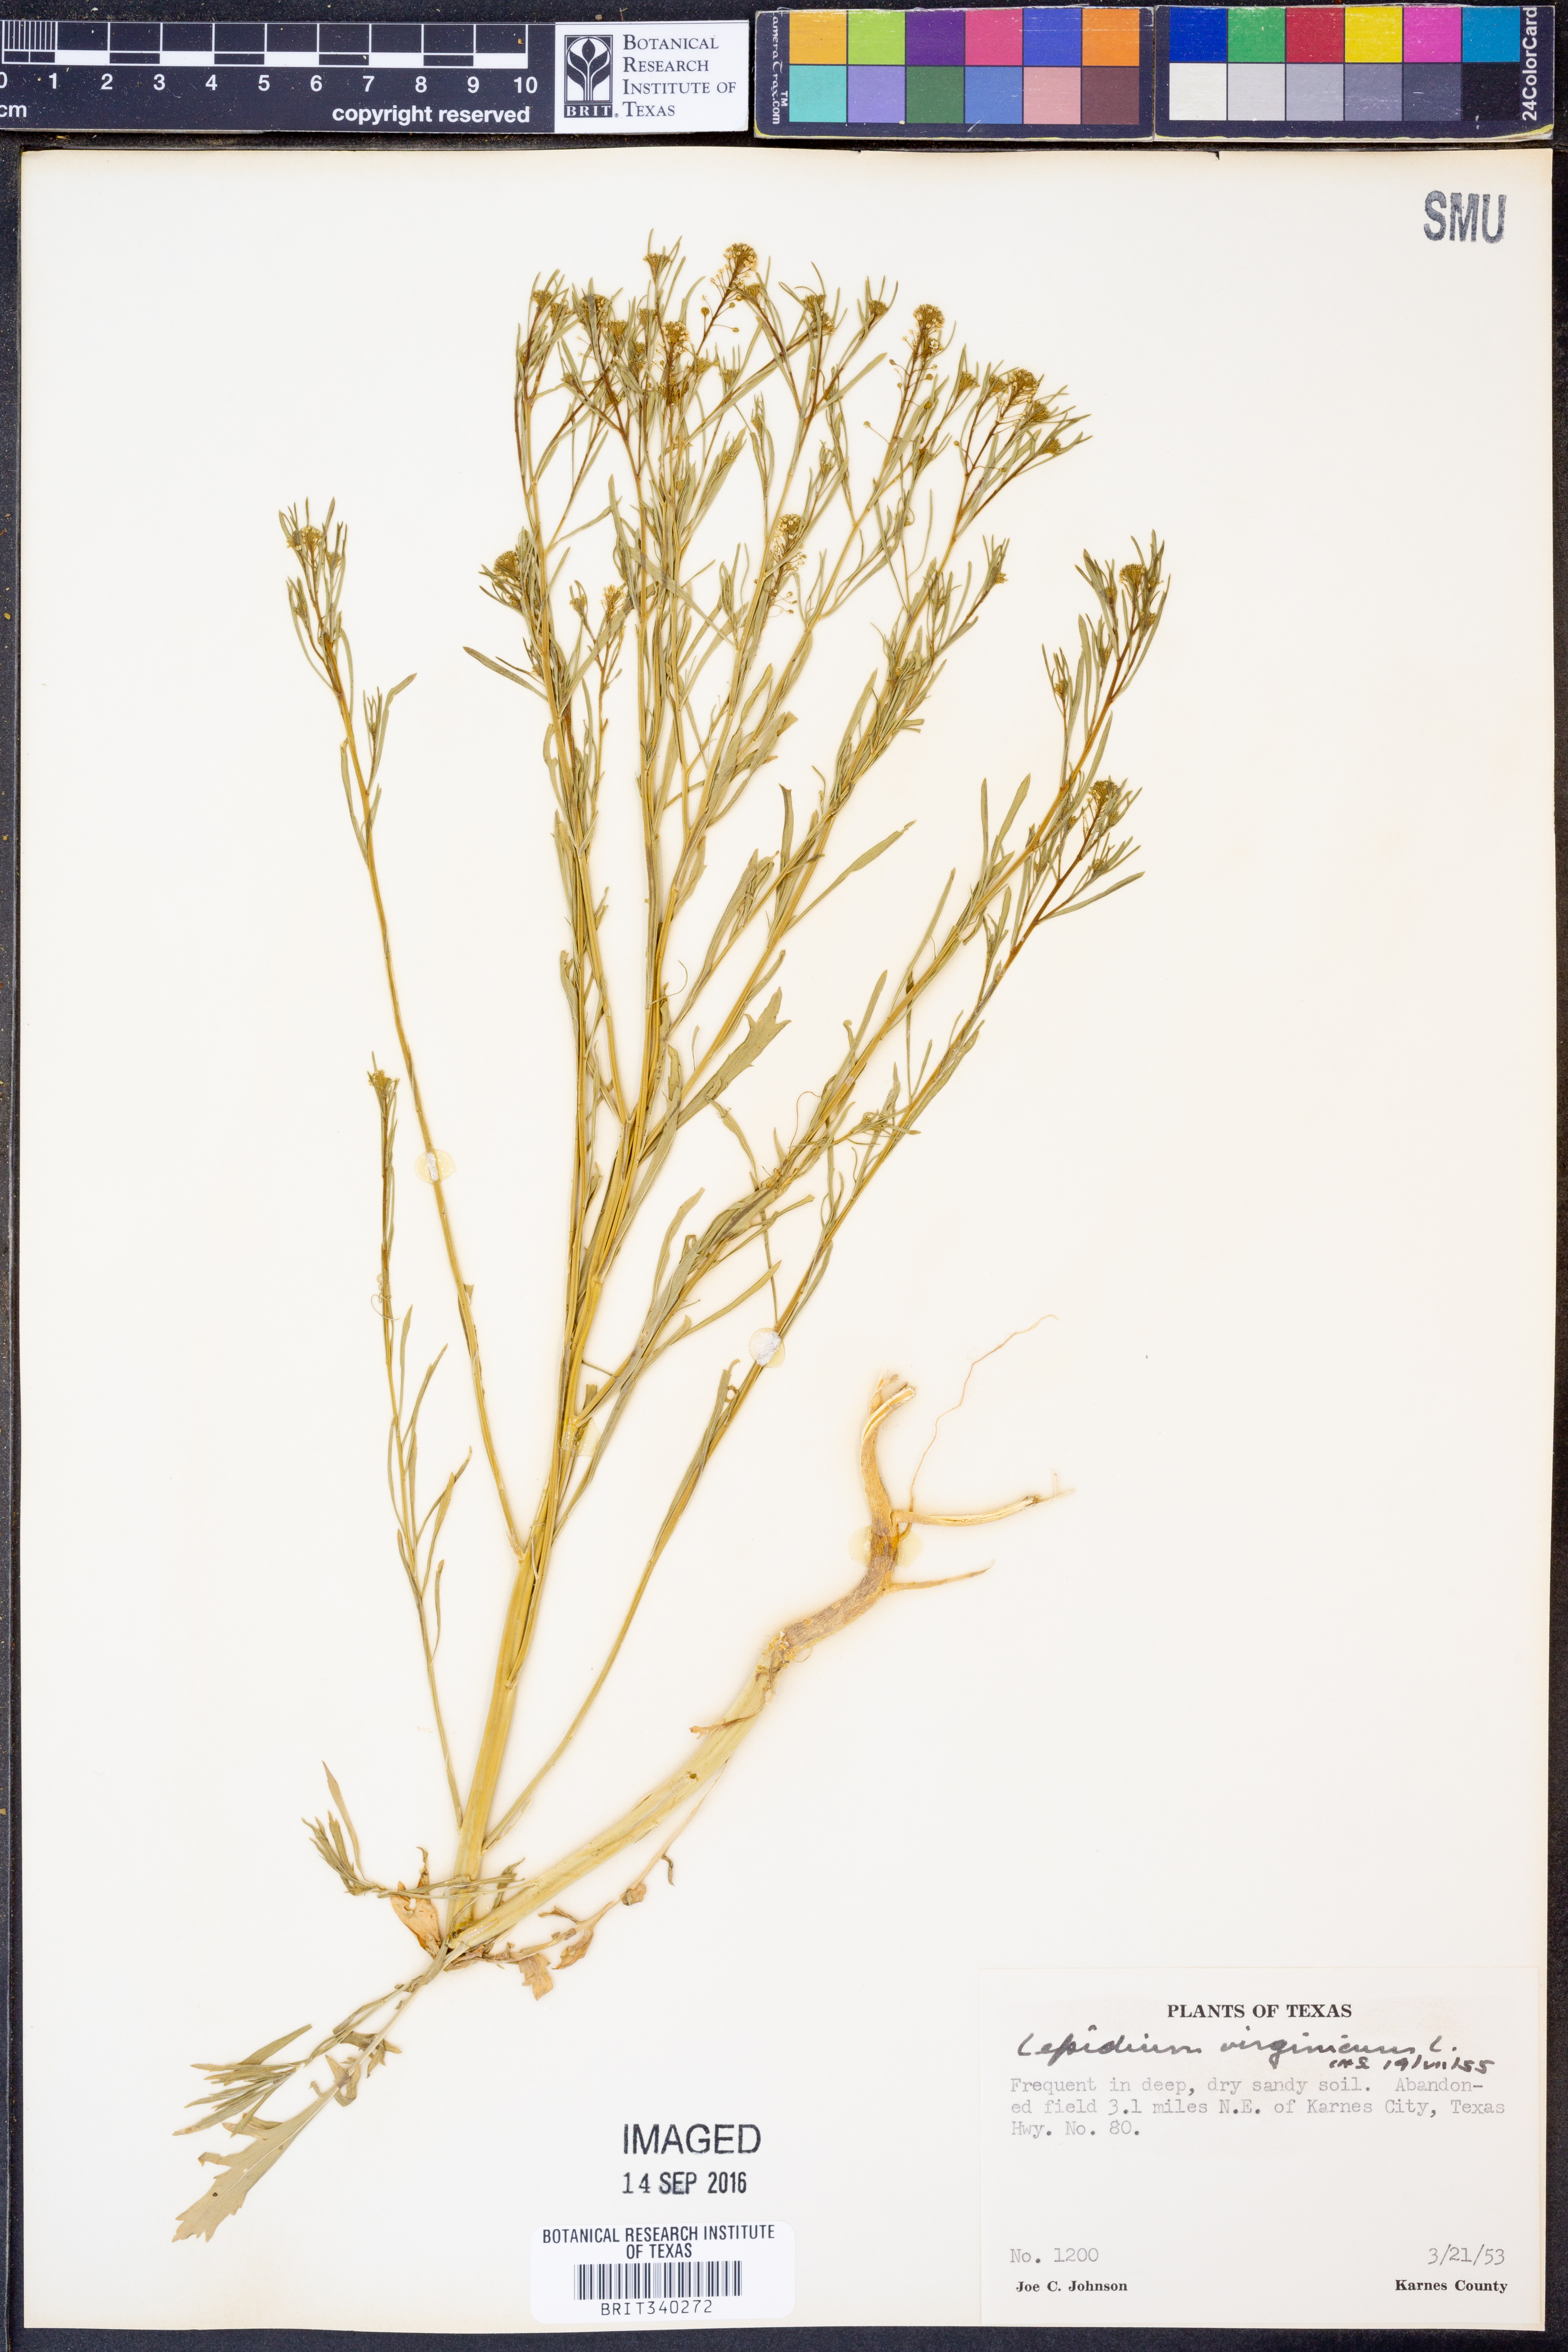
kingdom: Plantae
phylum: Tracheophyta
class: Magnoliopsida
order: Brassicales
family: Brassicaceae
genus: Lepidium
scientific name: Lepidium virginicum
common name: Least pepperwort
